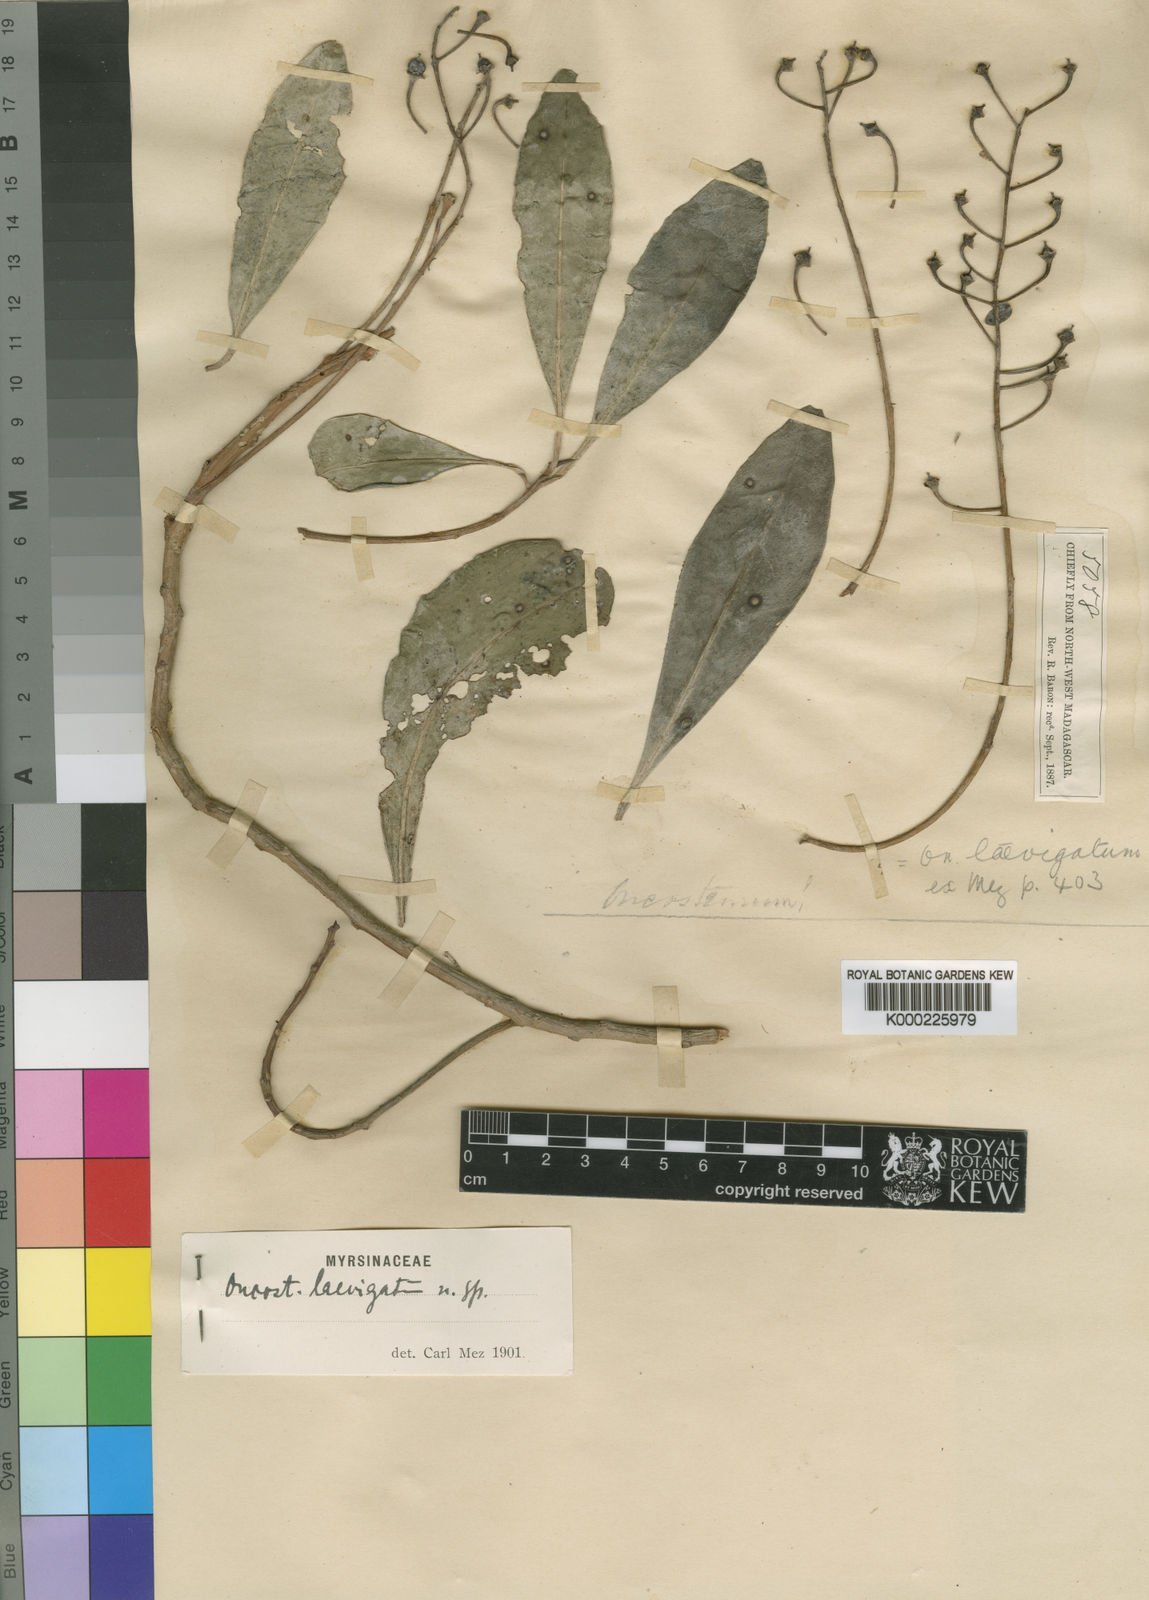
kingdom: Plantae
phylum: Tracheophyta
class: Magnoliopsida
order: Ericales
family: Primulaceae
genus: Oncostemum
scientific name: Oncostemum laevigatum
